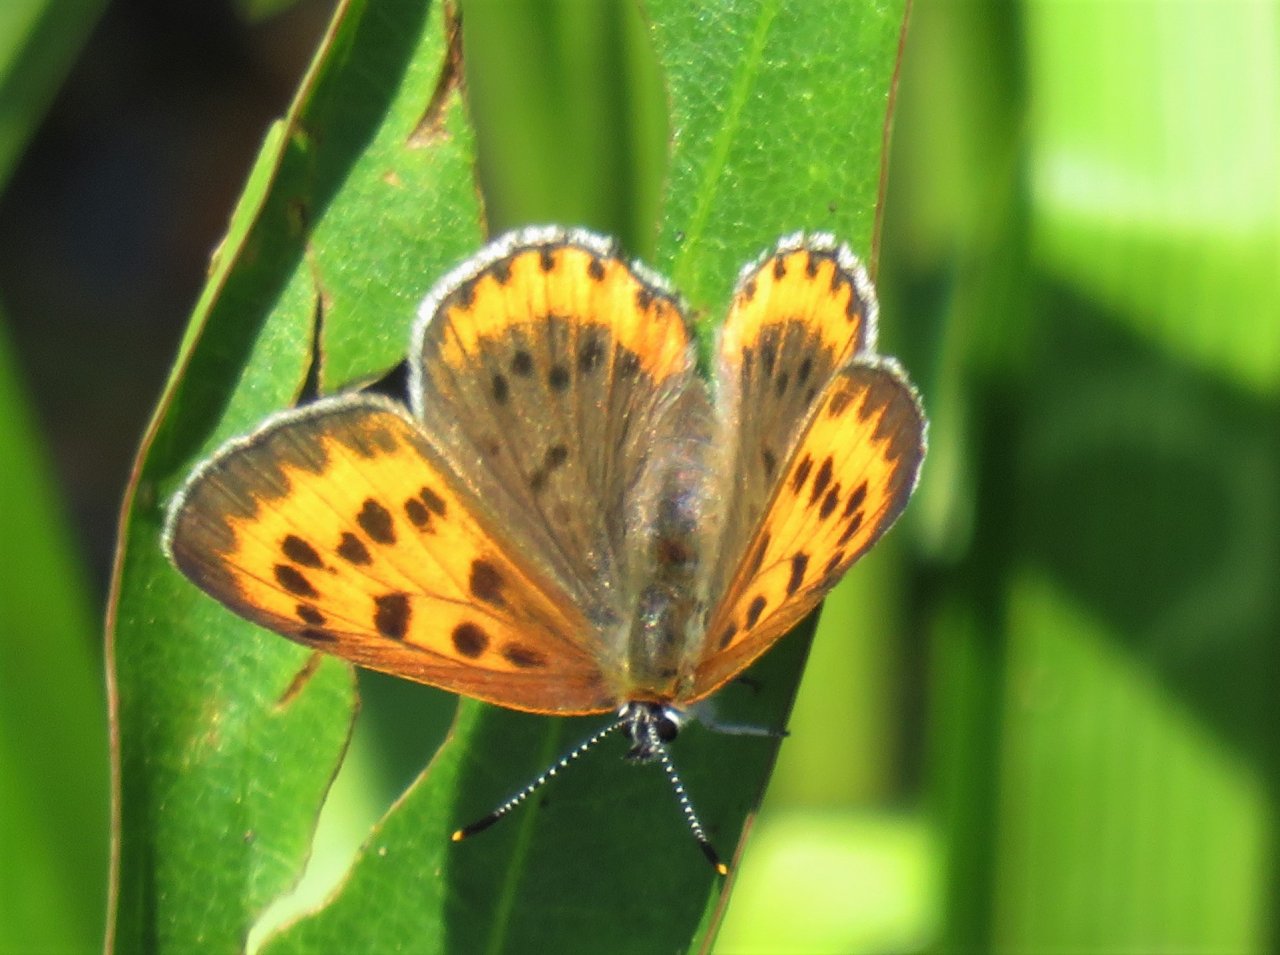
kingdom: Animalia
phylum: Arthropoda
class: Insecta
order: Lepidoptera
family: Sesiidae
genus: Sesia
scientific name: Sesia Lycaena hyllus
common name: Bronze Copper
